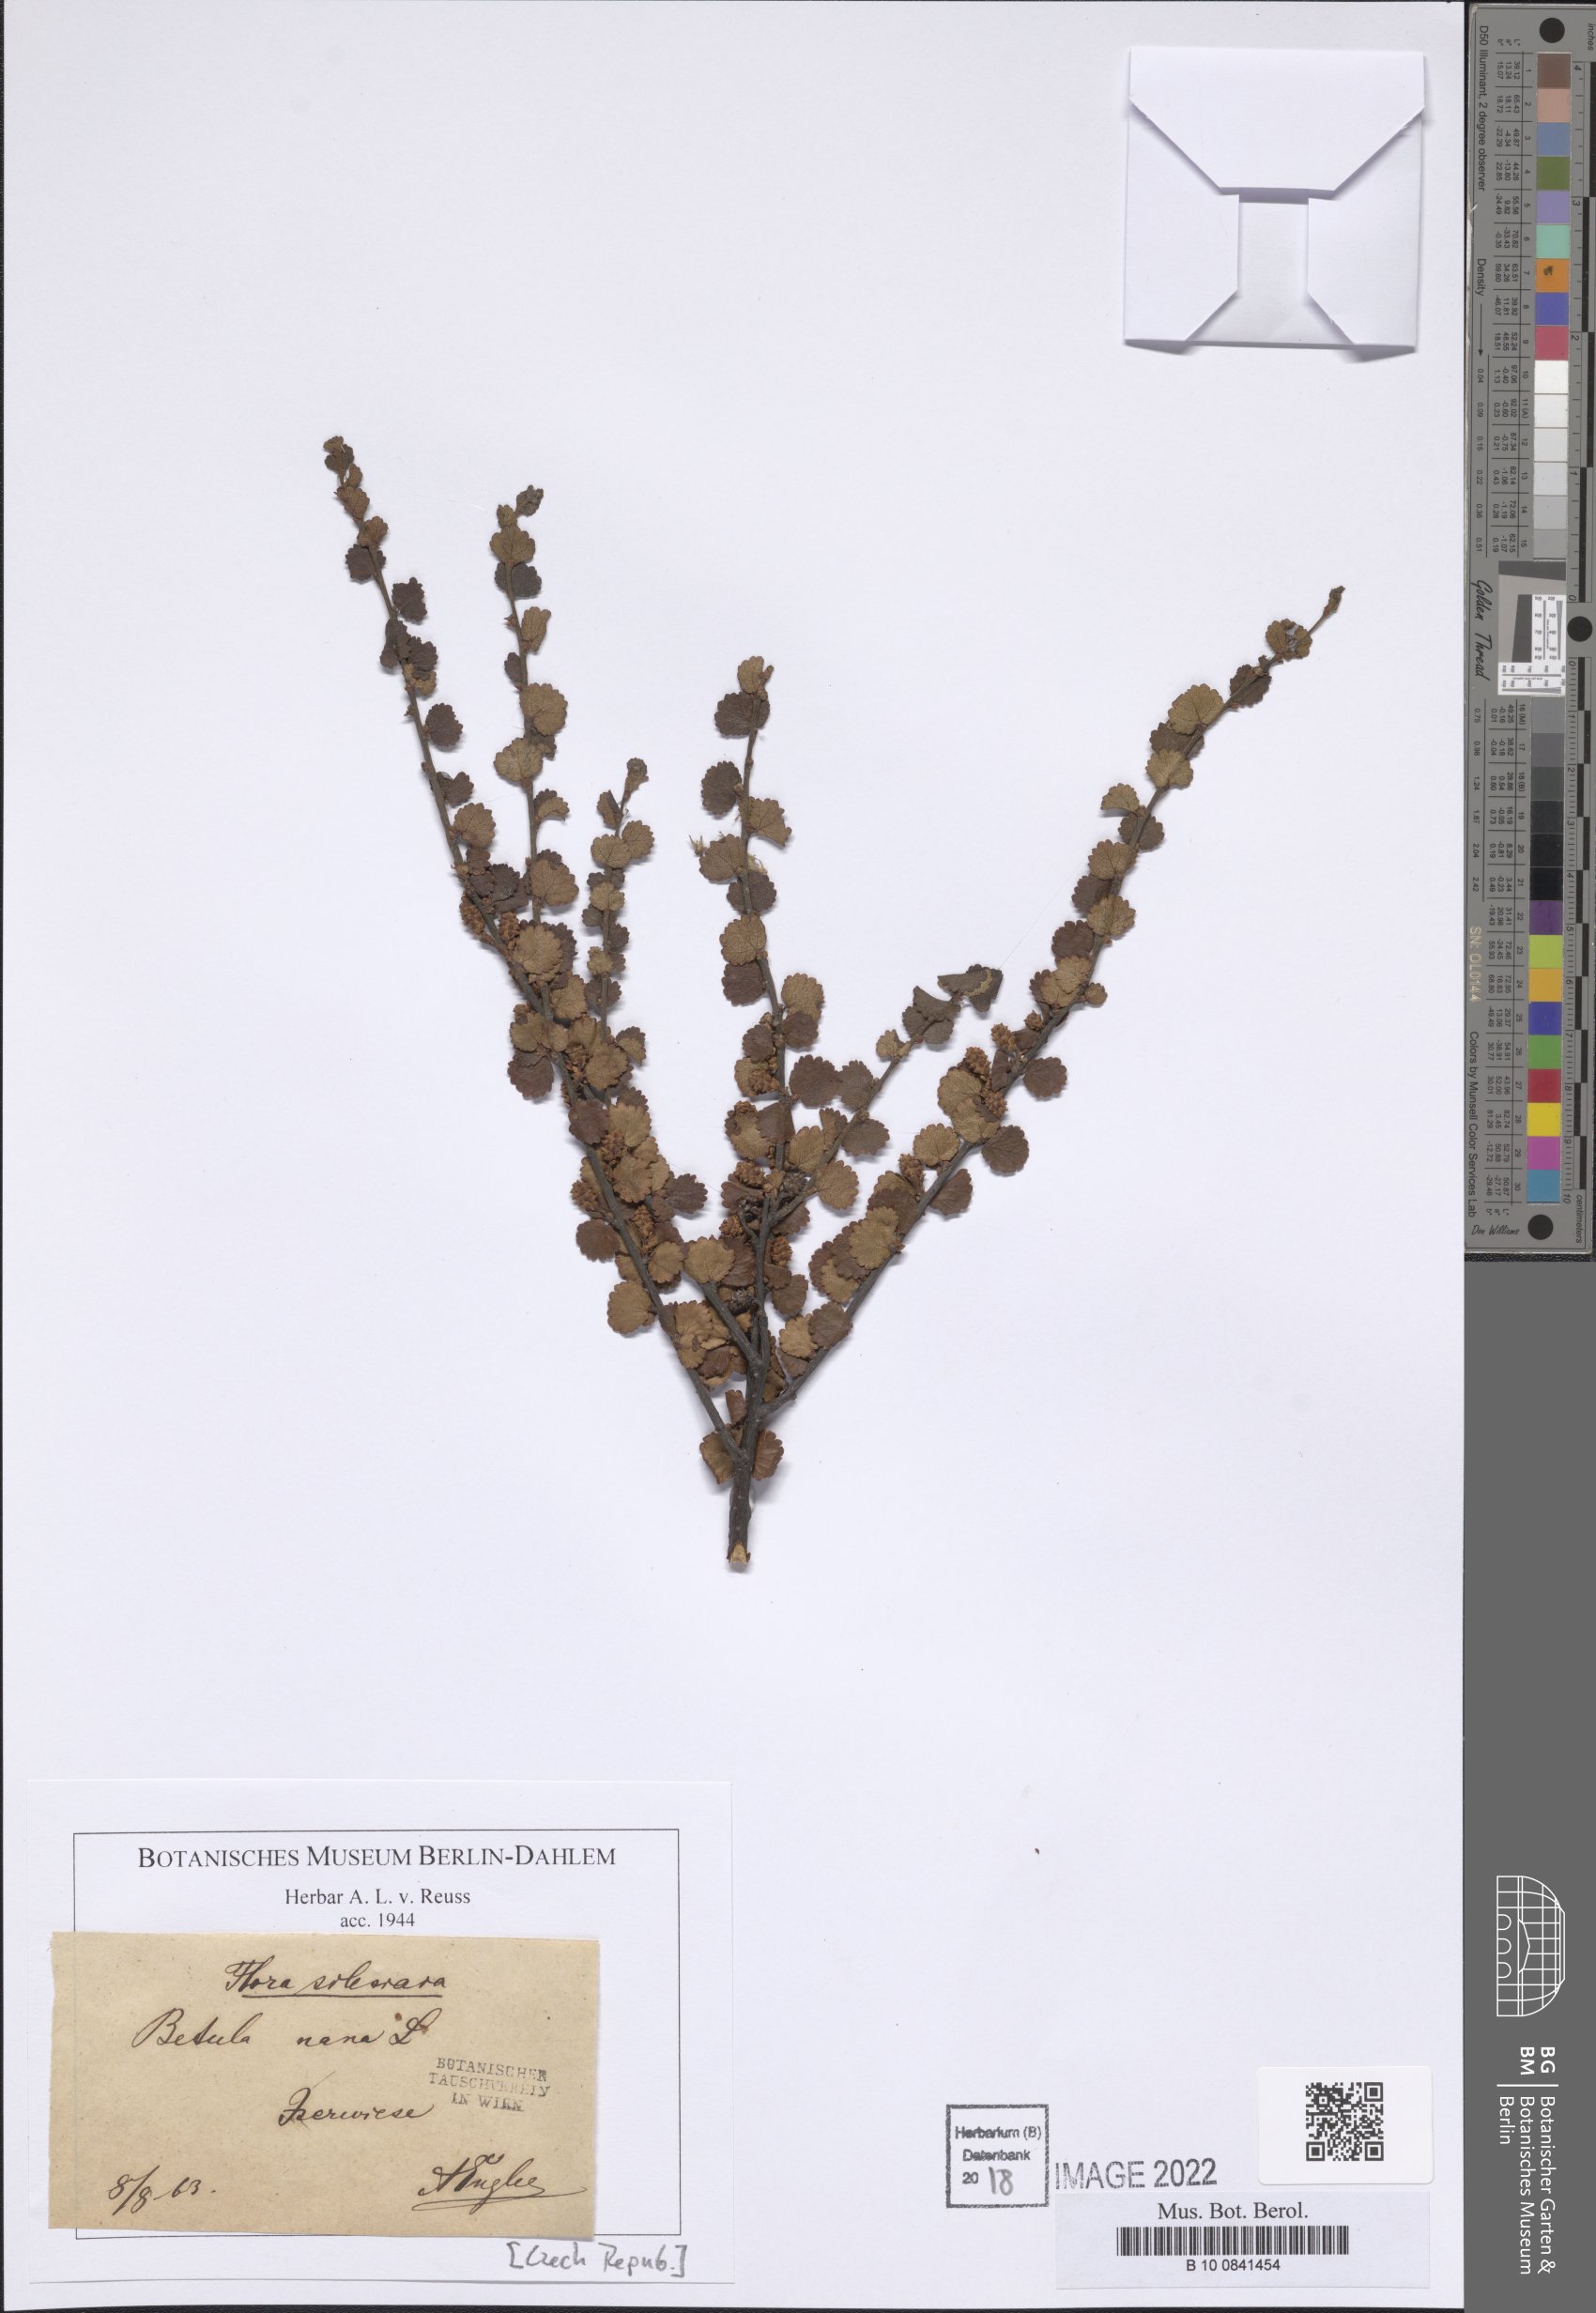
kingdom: Plantae
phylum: Tracheophyta
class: Magnoliopsida
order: Fagales
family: Betulaceae
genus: Betula
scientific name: Betula nana
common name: Arctic dwarf birch
